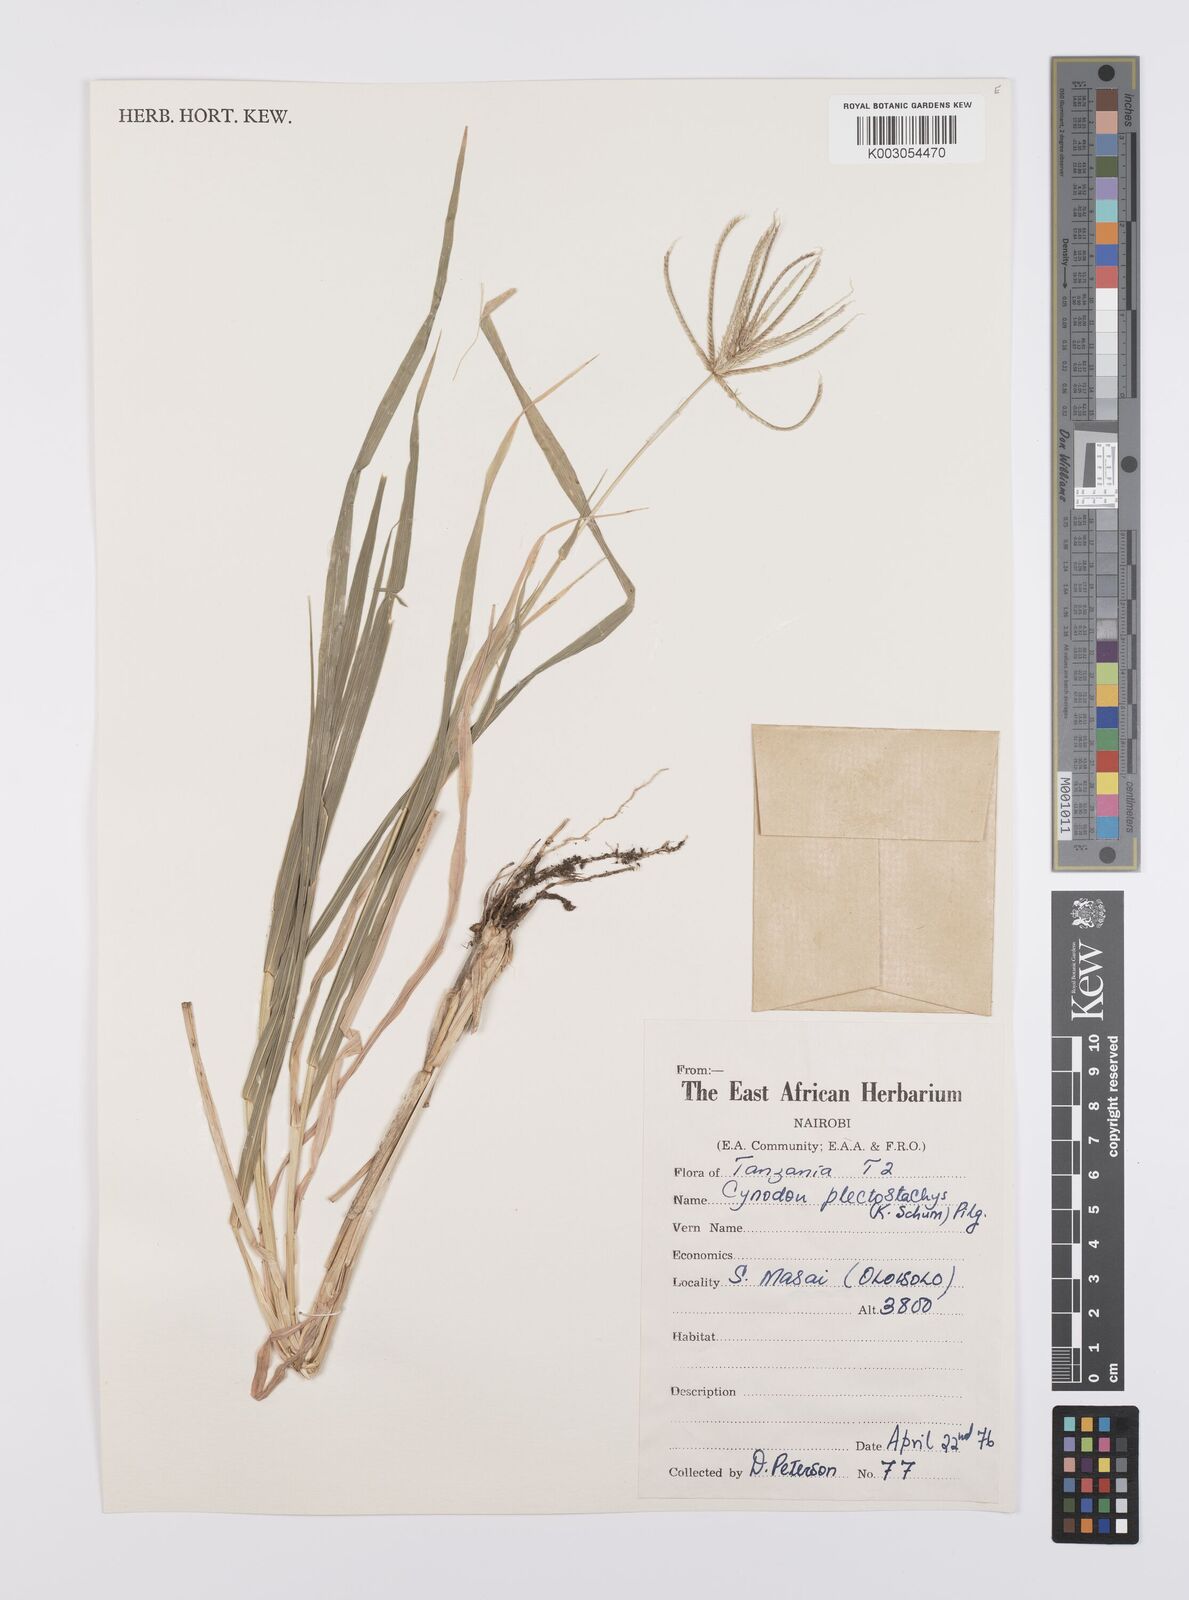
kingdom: Plantae
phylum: Tracheophyta
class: Liliopsida
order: Poales
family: Poaceae
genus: Cynodon
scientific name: Cynodon plectostachyus
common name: Stargrass
